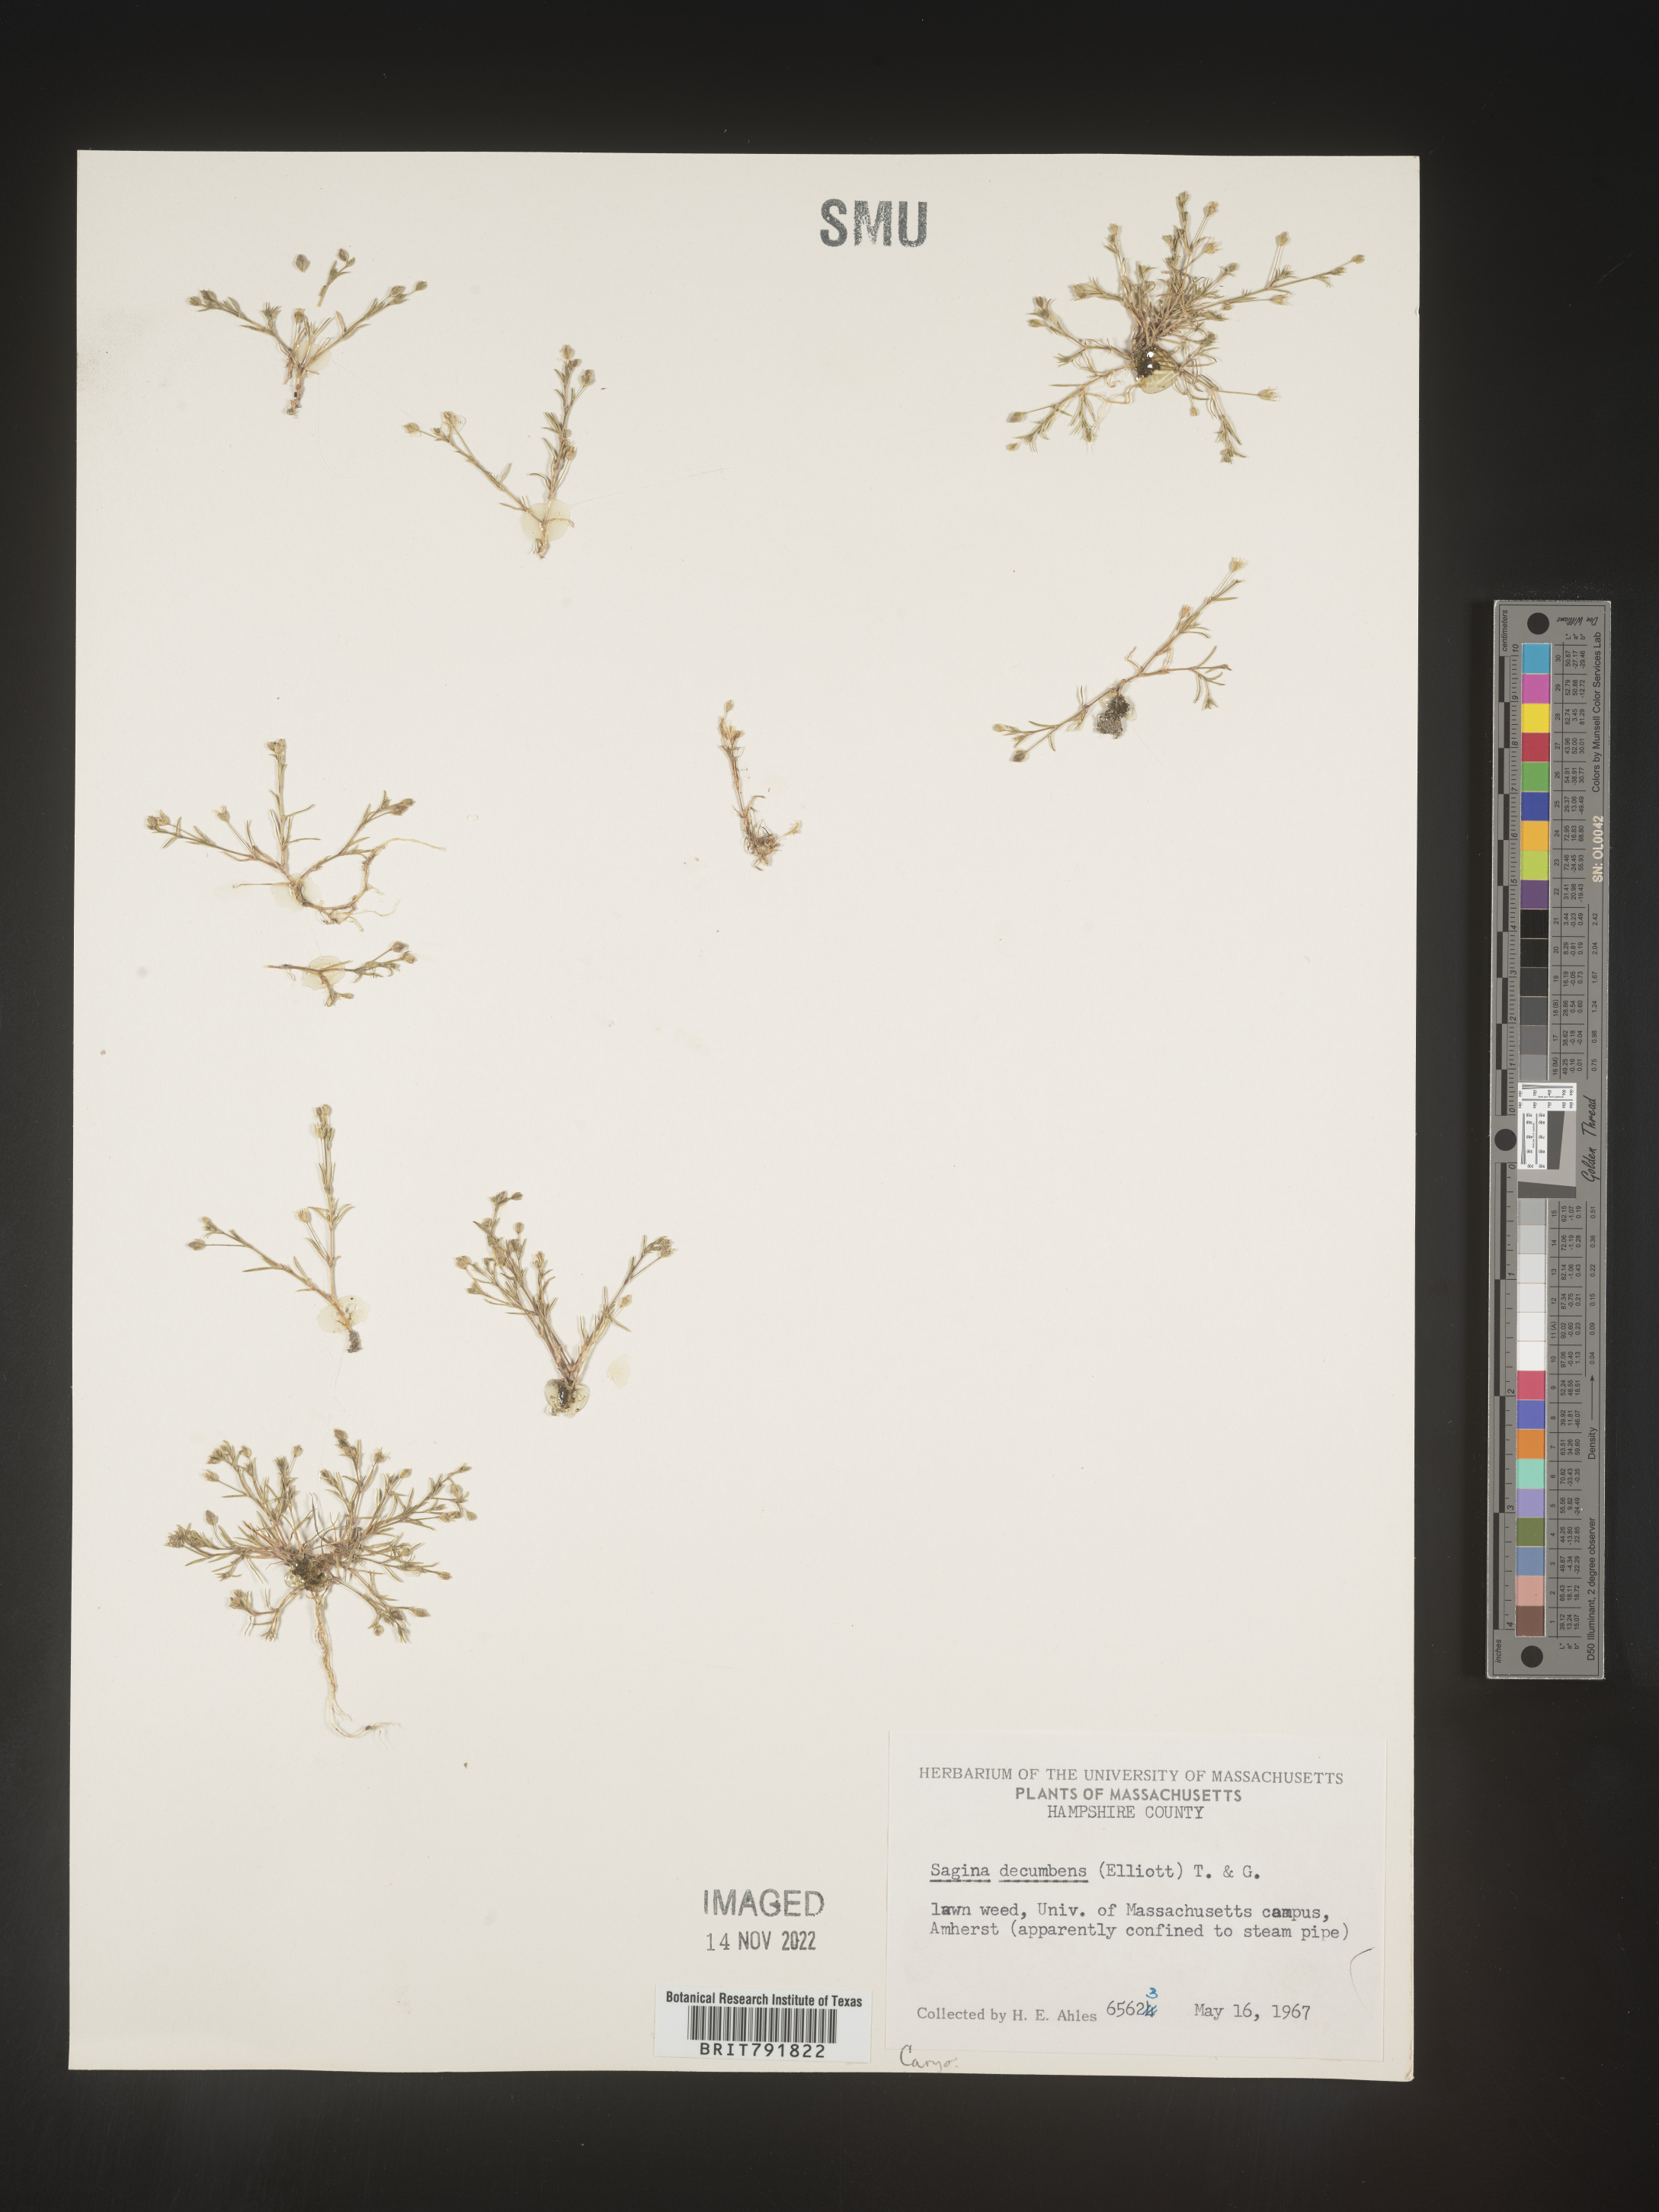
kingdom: Plantae
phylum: Tracheophyta
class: Magnoliopsida
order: Caryophyllales
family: Caryophyllaceae
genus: Sagina
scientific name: Sagina
